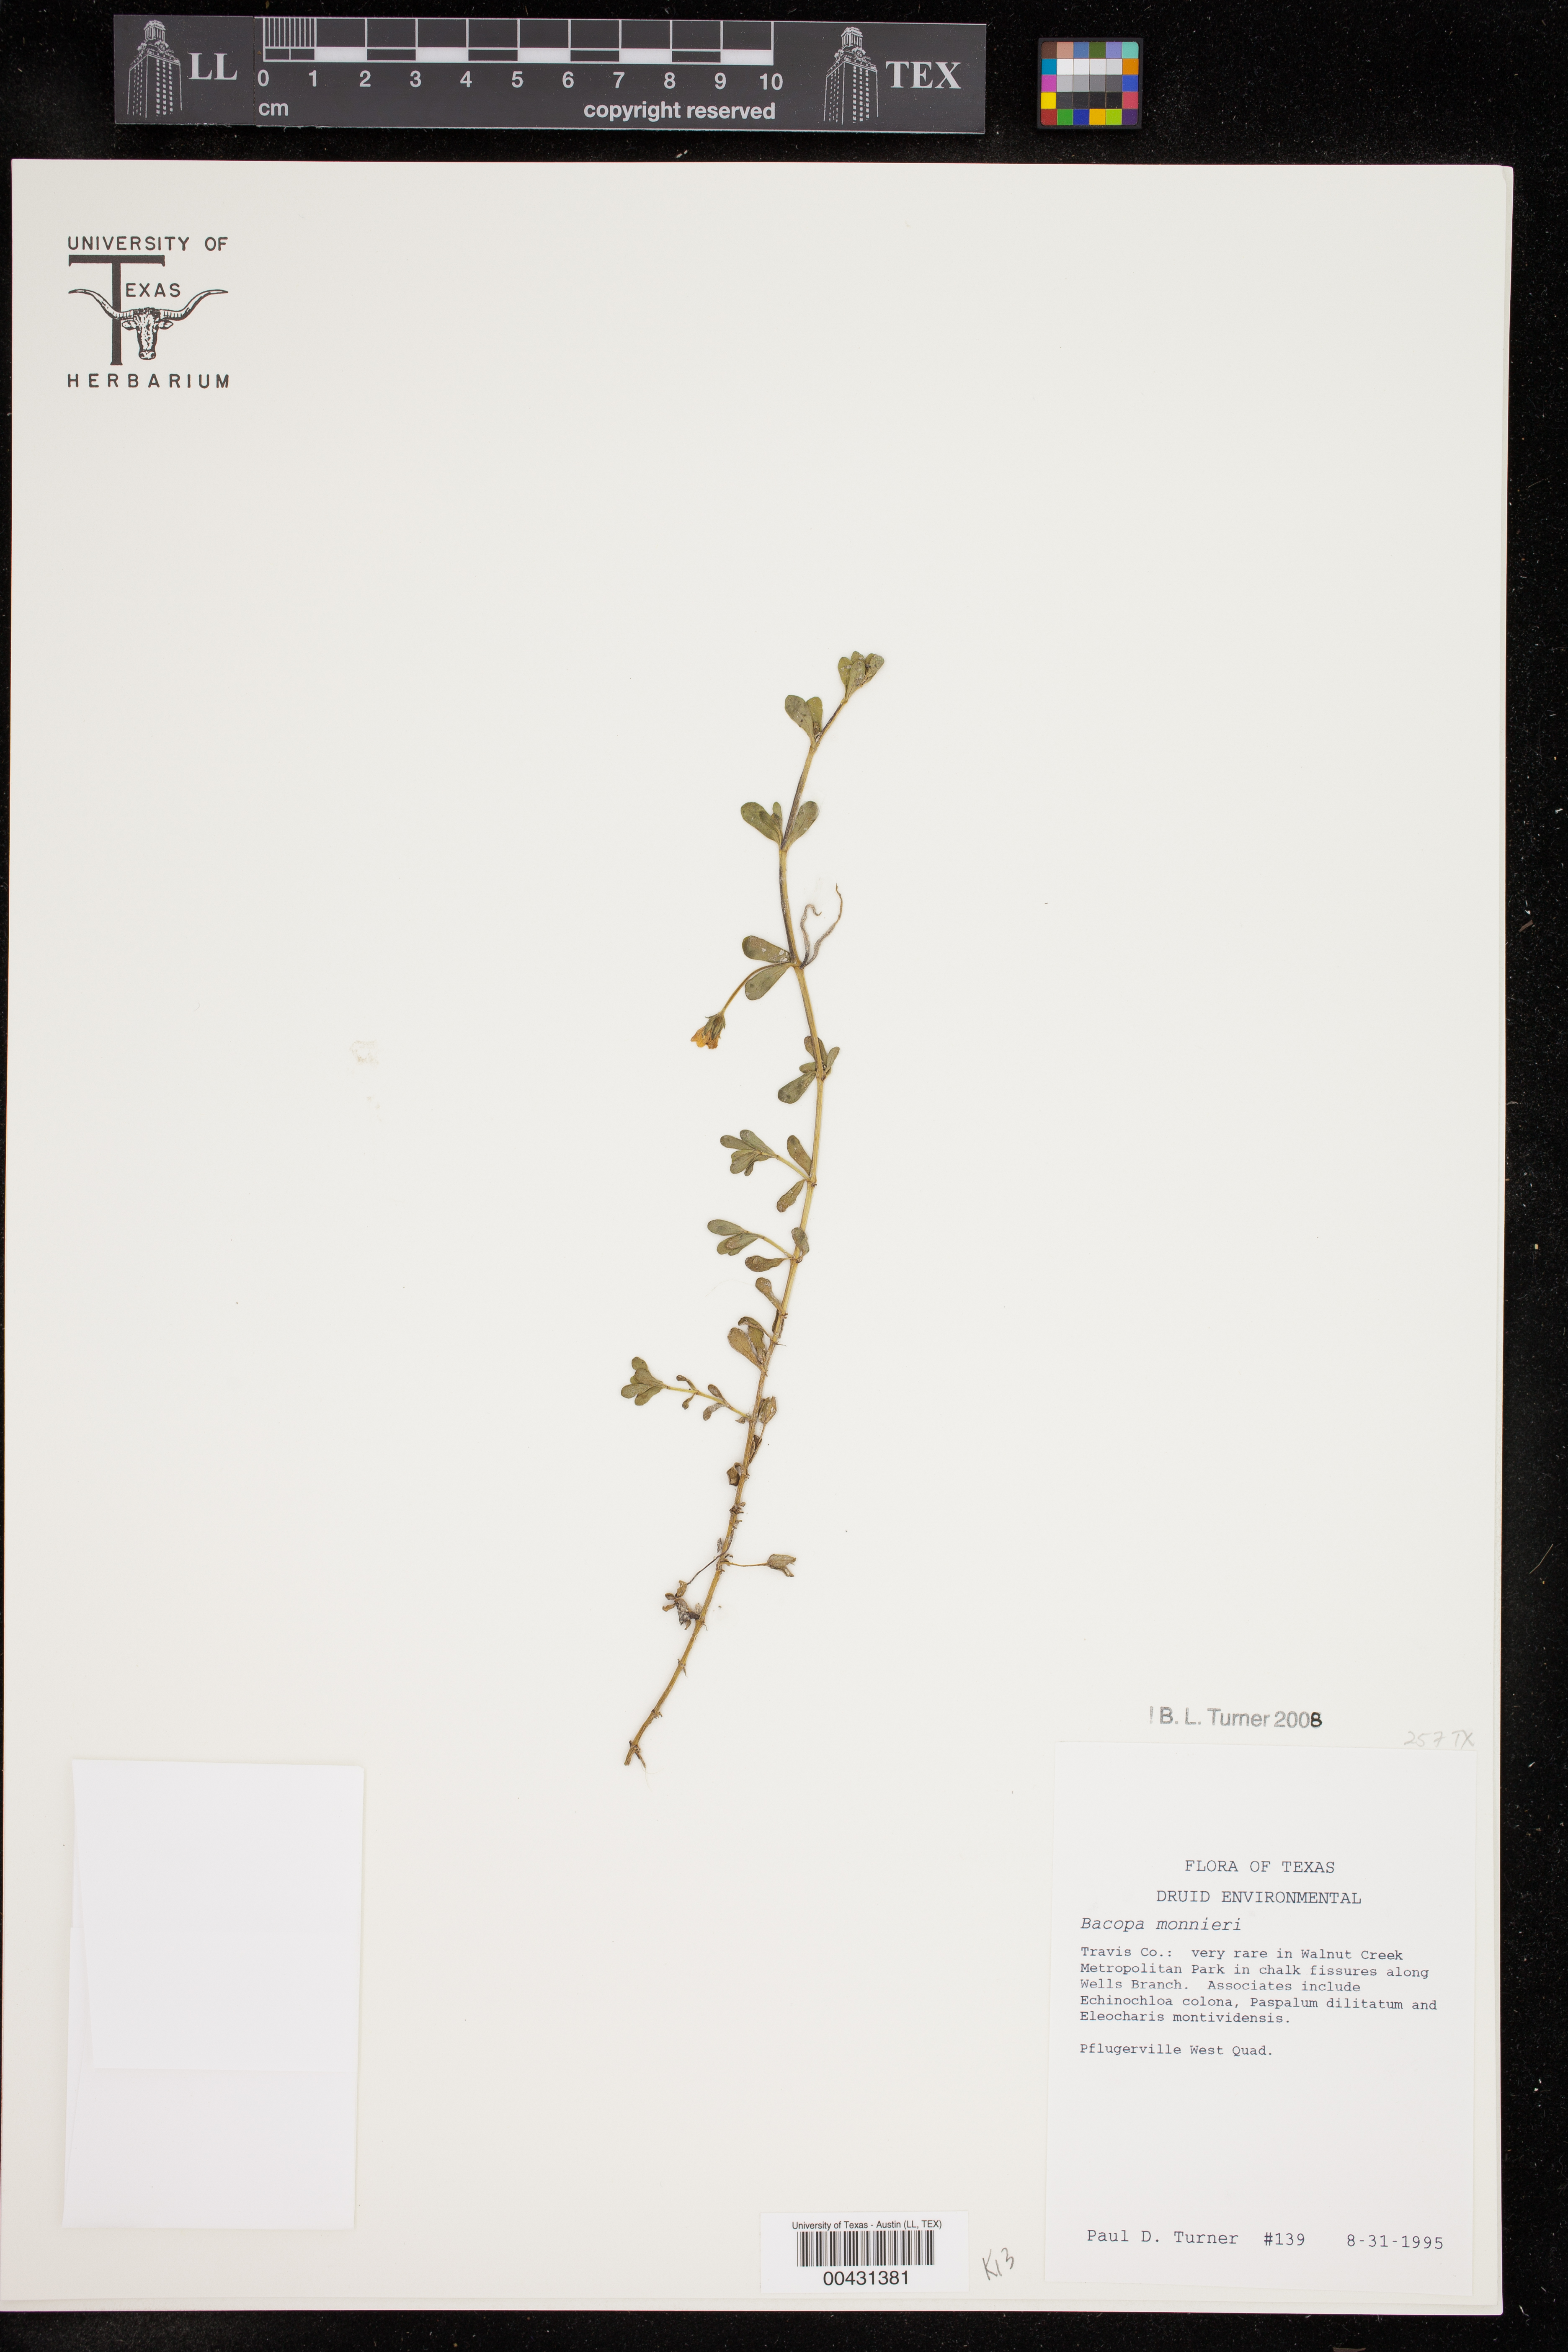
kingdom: Plantae
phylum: Tracheophyta
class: Magnoliopsida
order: Lamiales
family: Plantaginaceae
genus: Bacopa
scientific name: Bacopa monnieri
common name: Indian-pennywort
